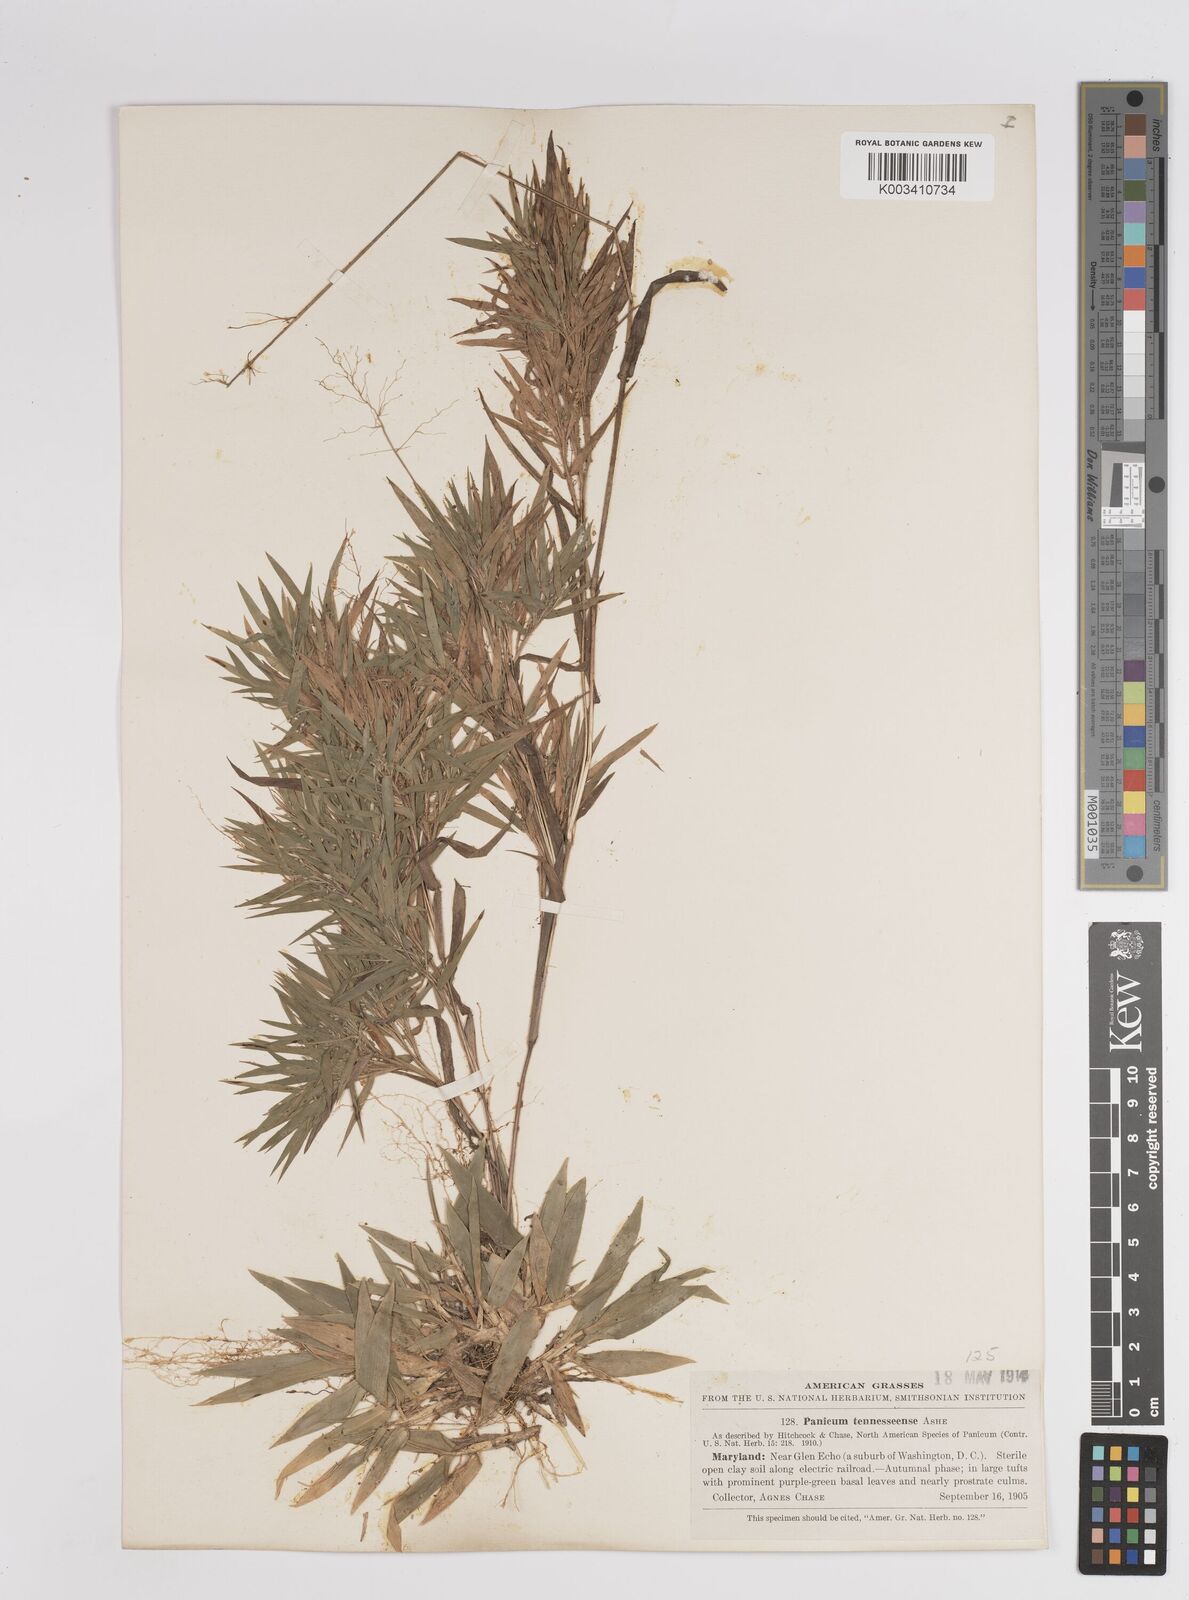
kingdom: Plantae
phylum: Tracheophyta
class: Liliopsida
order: Poales
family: Poaceae
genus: Dichanthelium
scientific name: Dichanthelium acuminatum
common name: Hairy panic grass
